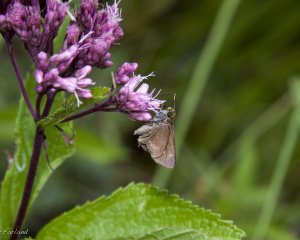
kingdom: Animalia
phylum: Arthropoda
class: Insecta
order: Lepidoptera
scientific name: Lepidoptera
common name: Butterflies
